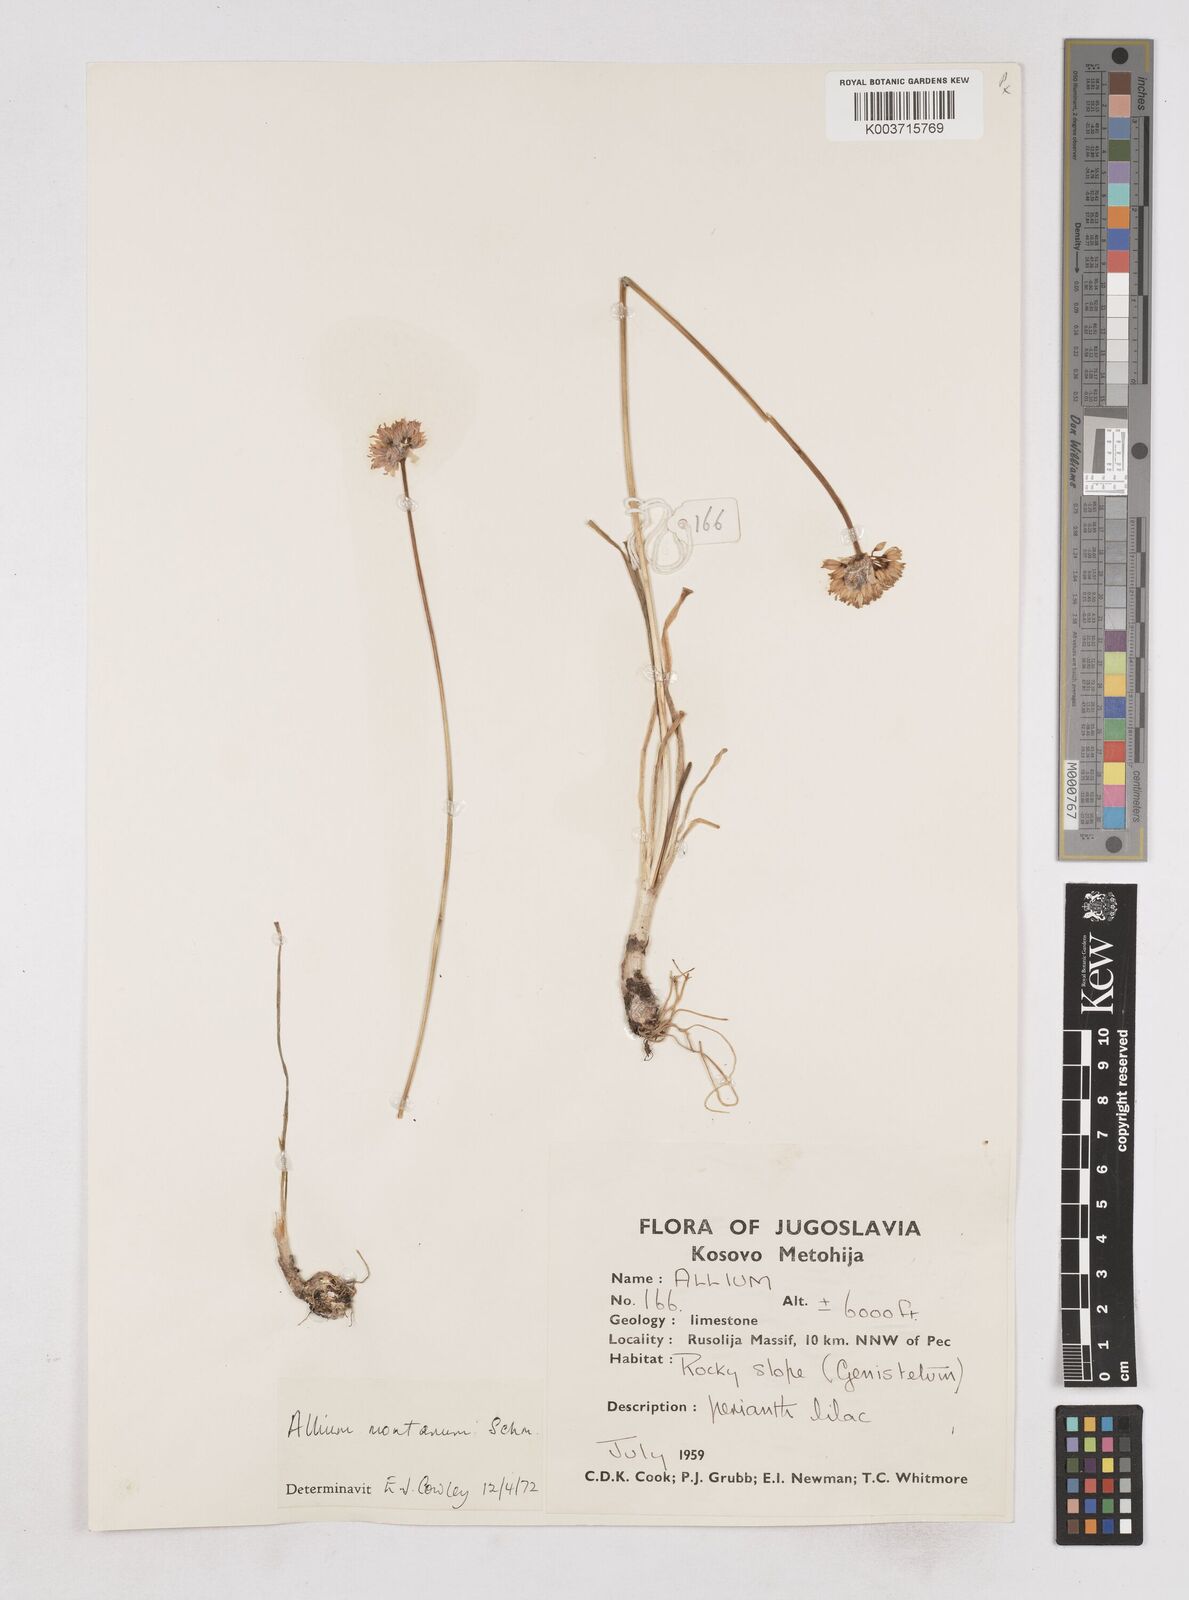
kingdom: Plantae
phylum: Tracheophyta
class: Liliopsida
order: Asparagales
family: Amaryllidaceae
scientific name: Amaryllidaceae
